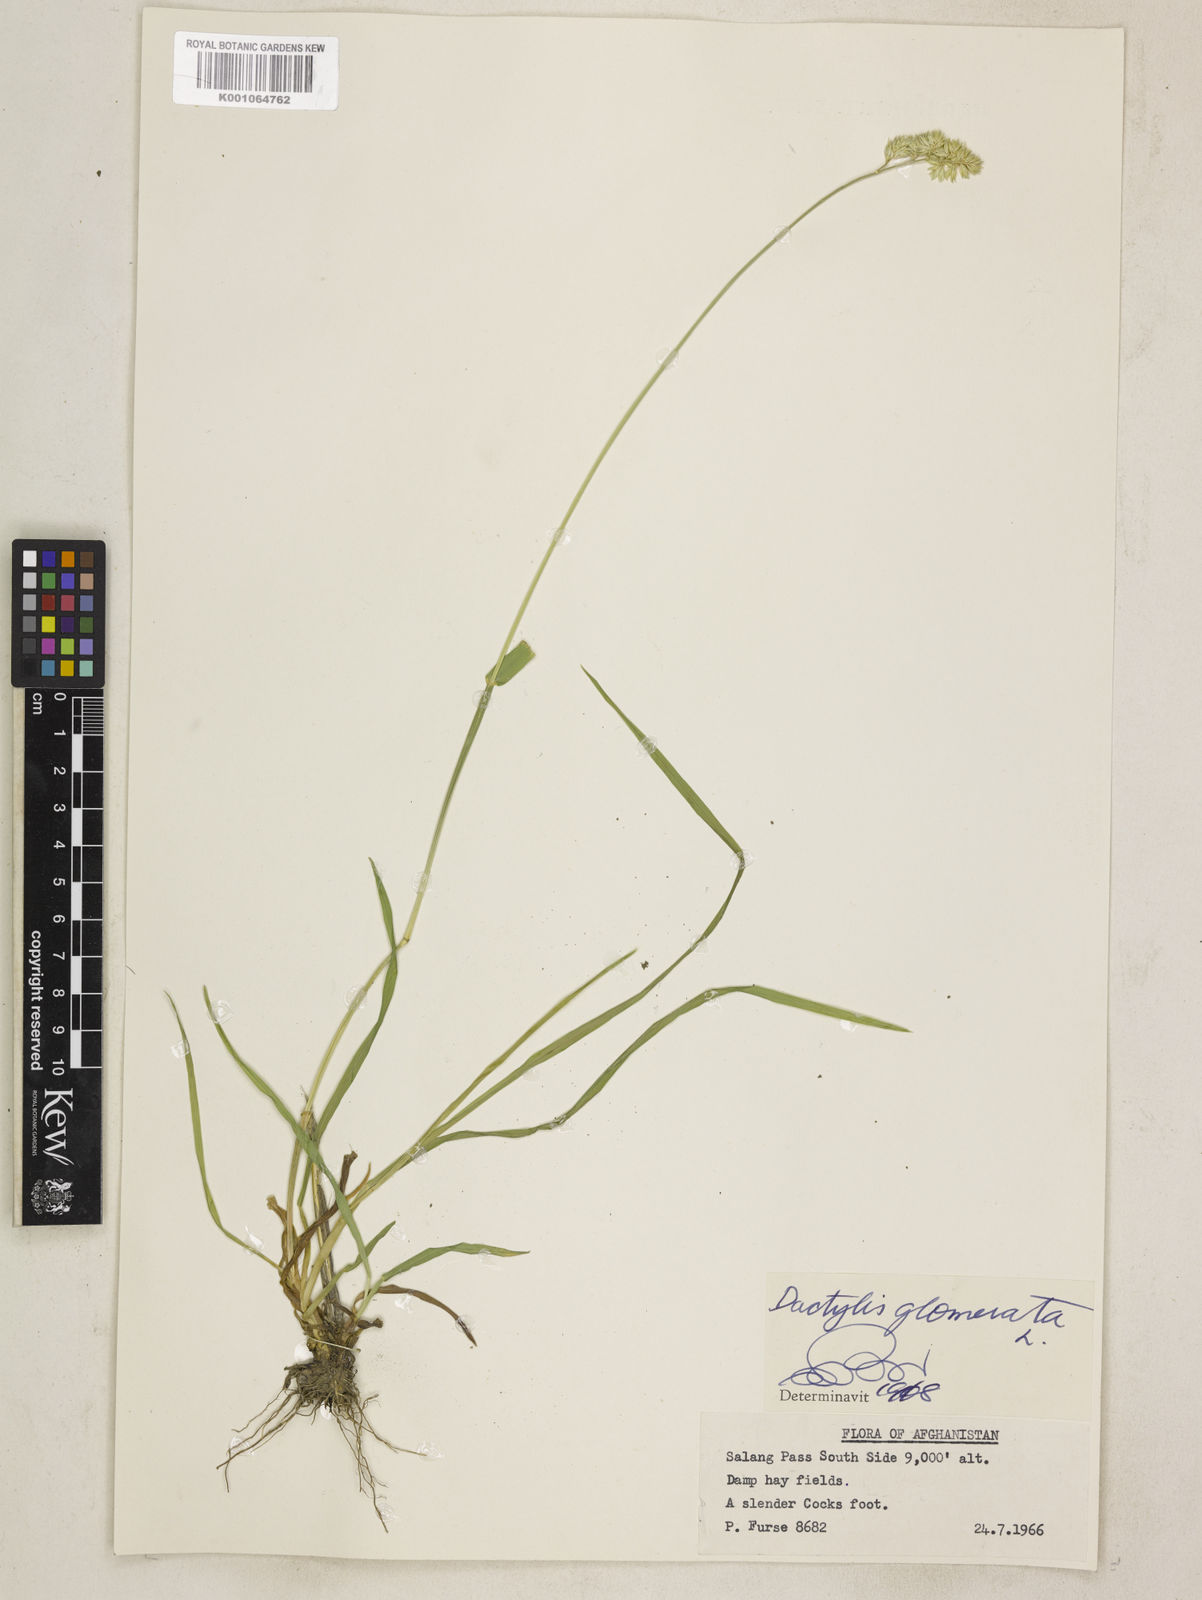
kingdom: Plantae
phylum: Tracheophyta
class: Liliopsida
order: Poales
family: Poaceae
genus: Dactylis
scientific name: Dactylis glomerata
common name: Orchardgrass
